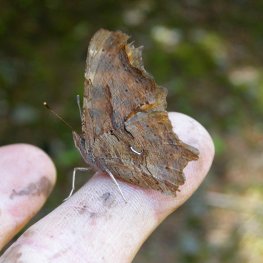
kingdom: Animalia
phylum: Arthropoda
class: Insecta
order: Lepidoptera
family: Nymphalidae
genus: Polygonia
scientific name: Polygonia satyrus
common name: Satyr Comma
